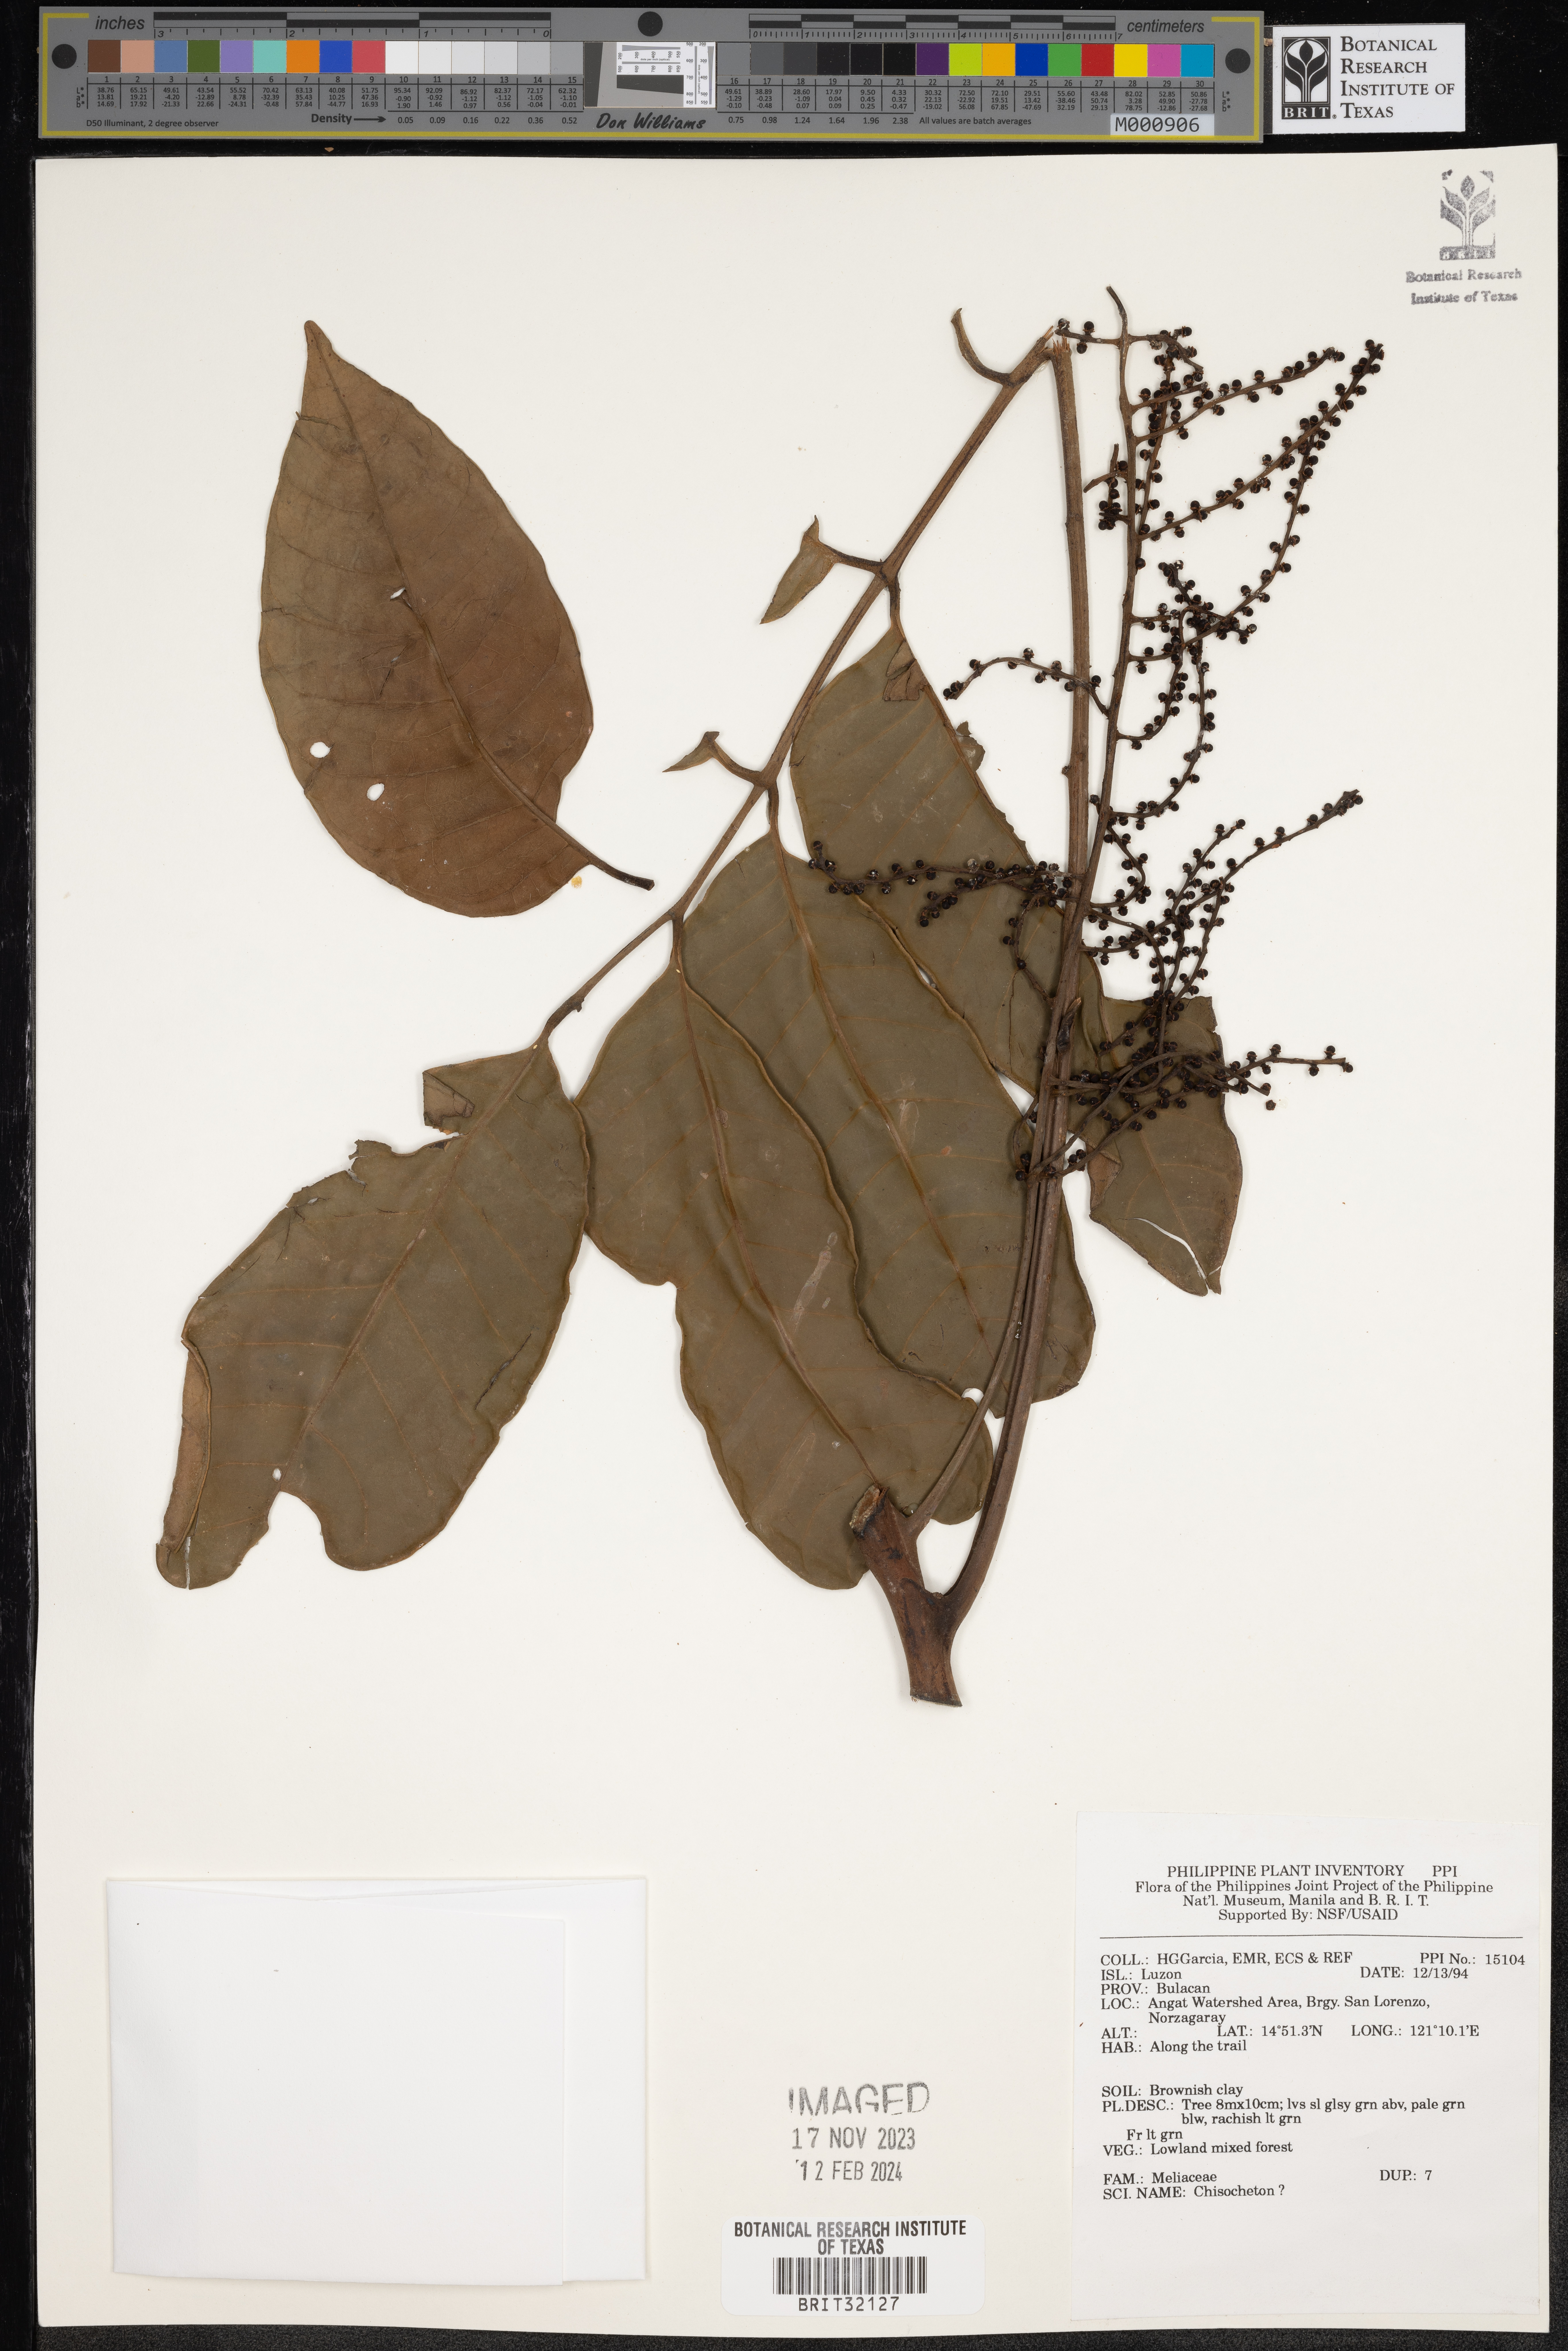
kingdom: Plantae
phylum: Tracheophyta
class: Magnoliopsida
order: Sapindales
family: Meliaceae
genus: Chisocheton
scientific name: Chisocheton
